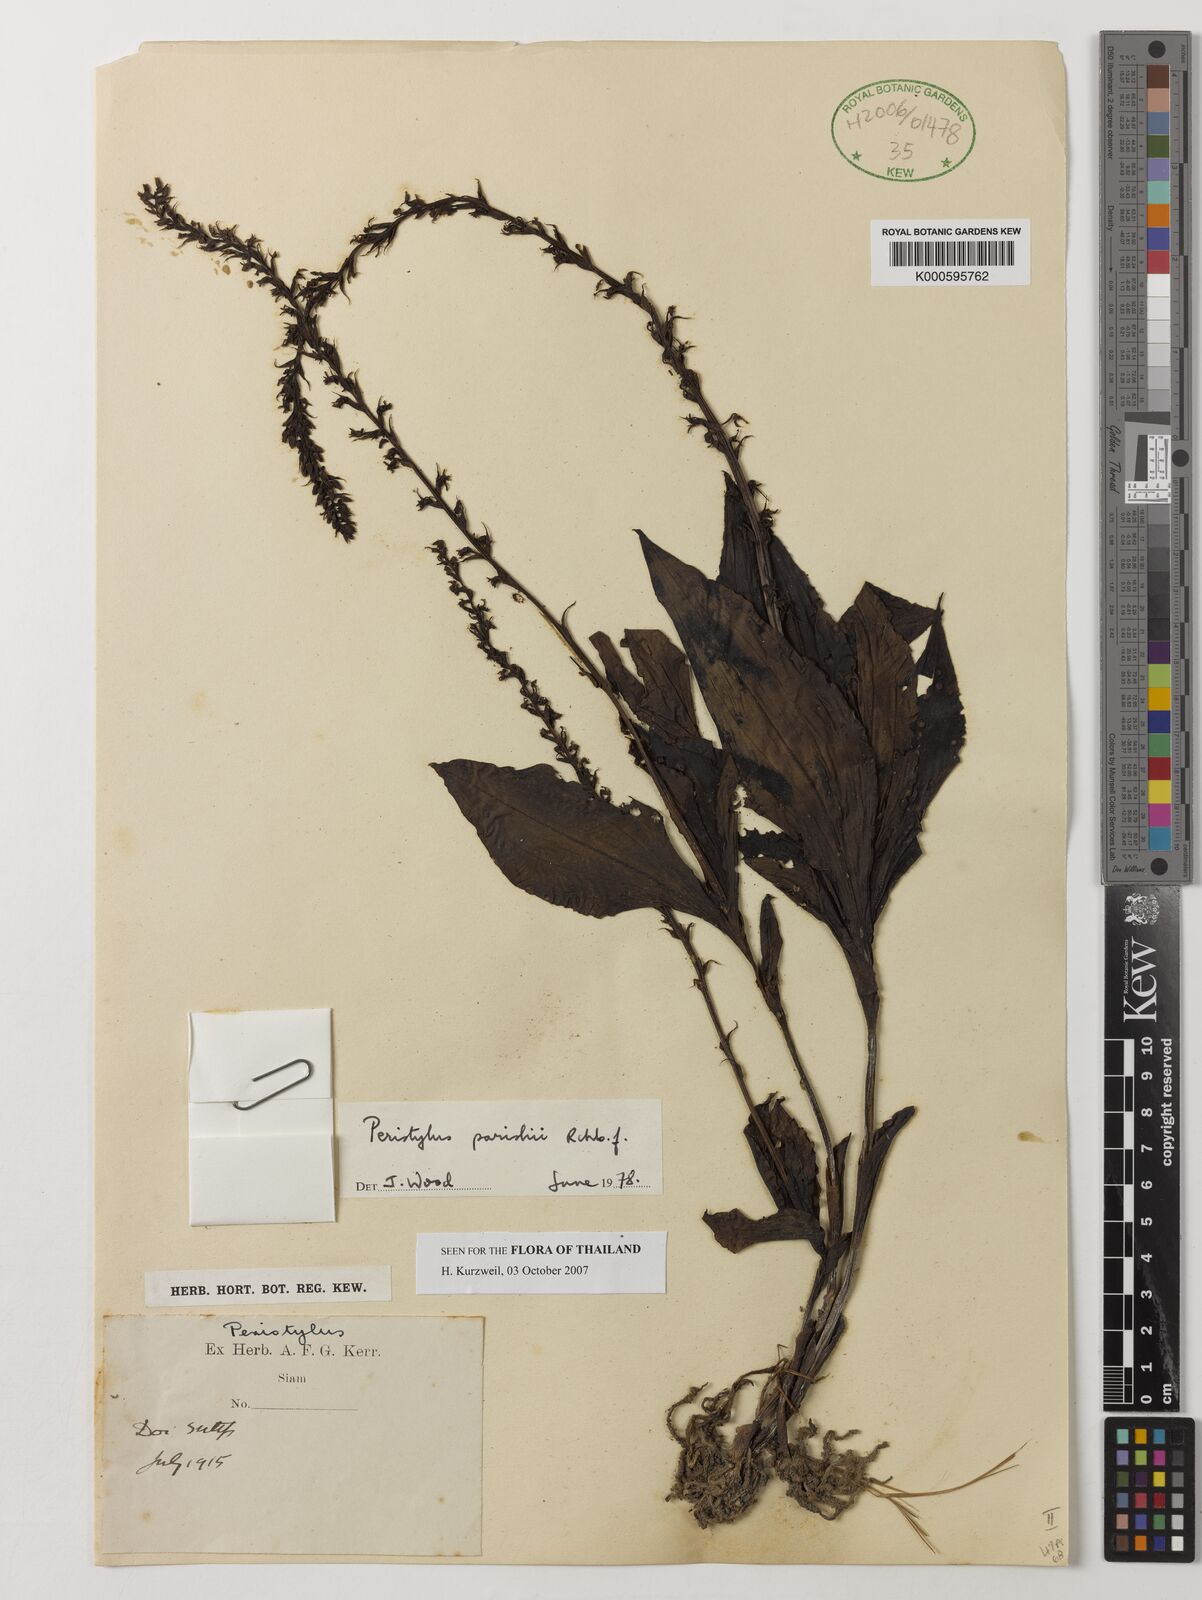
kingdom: Plantae
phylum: Tracheophyta
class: Liliopsida
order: Asparagales
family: Orchidaceae
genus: Peristylus
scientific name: Peristylus parishii
